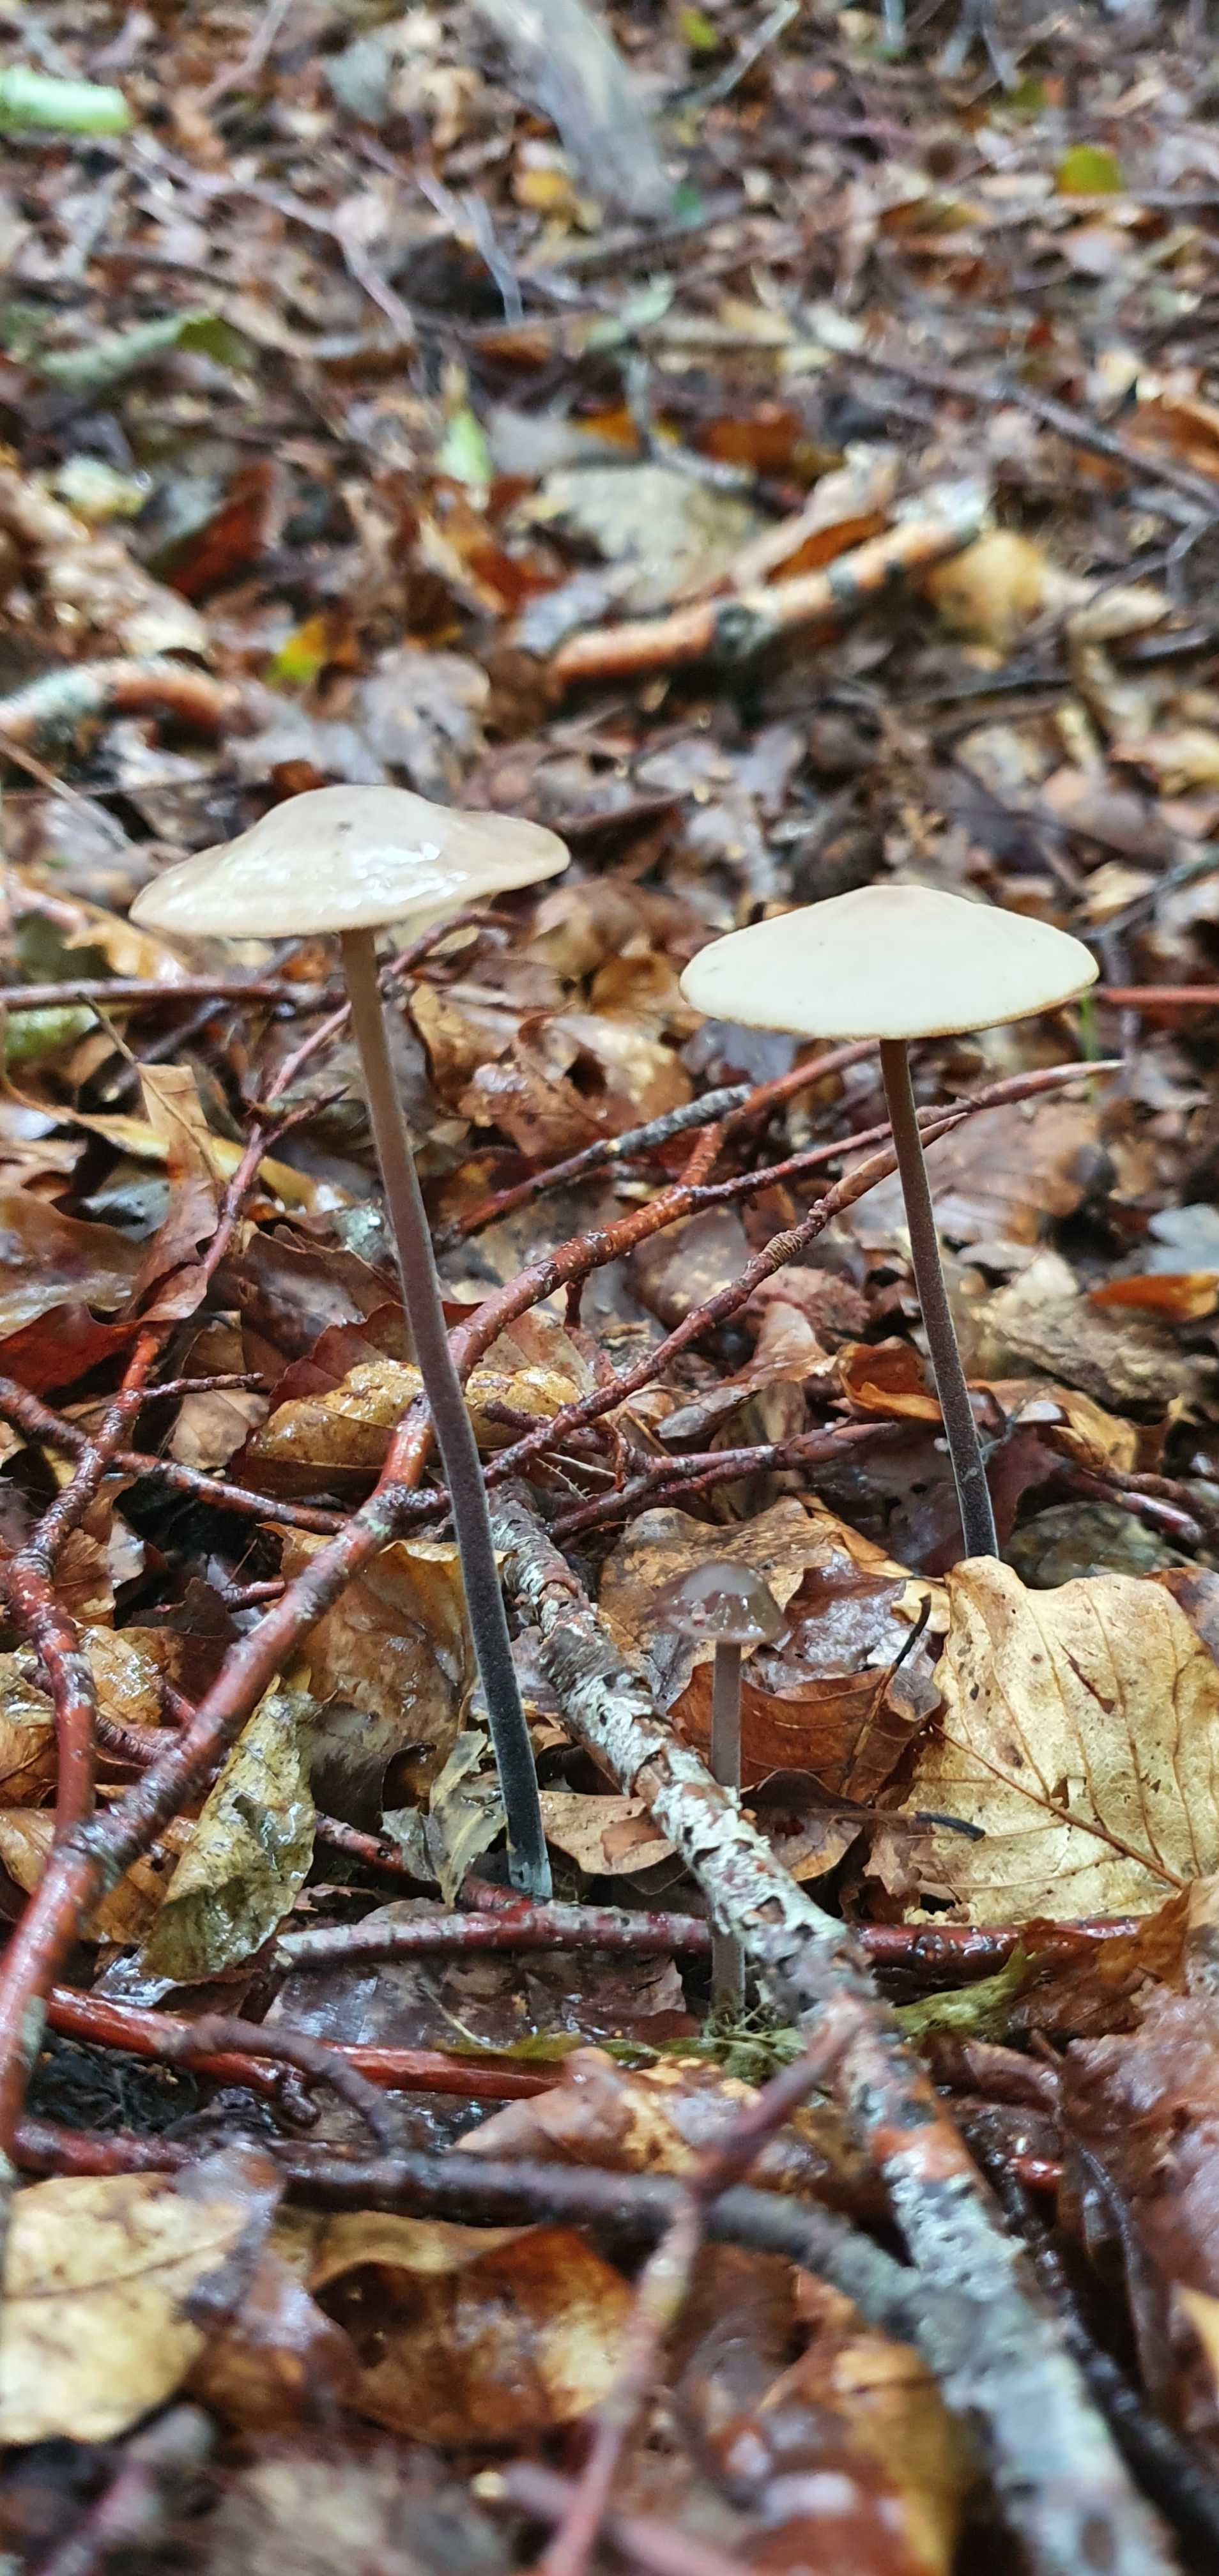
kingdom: Fungi
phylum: Basidiomycota
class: Agaricomycetes
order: Agaricales
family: Omphalotaceae
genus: Mycetinis
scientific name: Mycetinis alliaceus
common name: stor løghat
